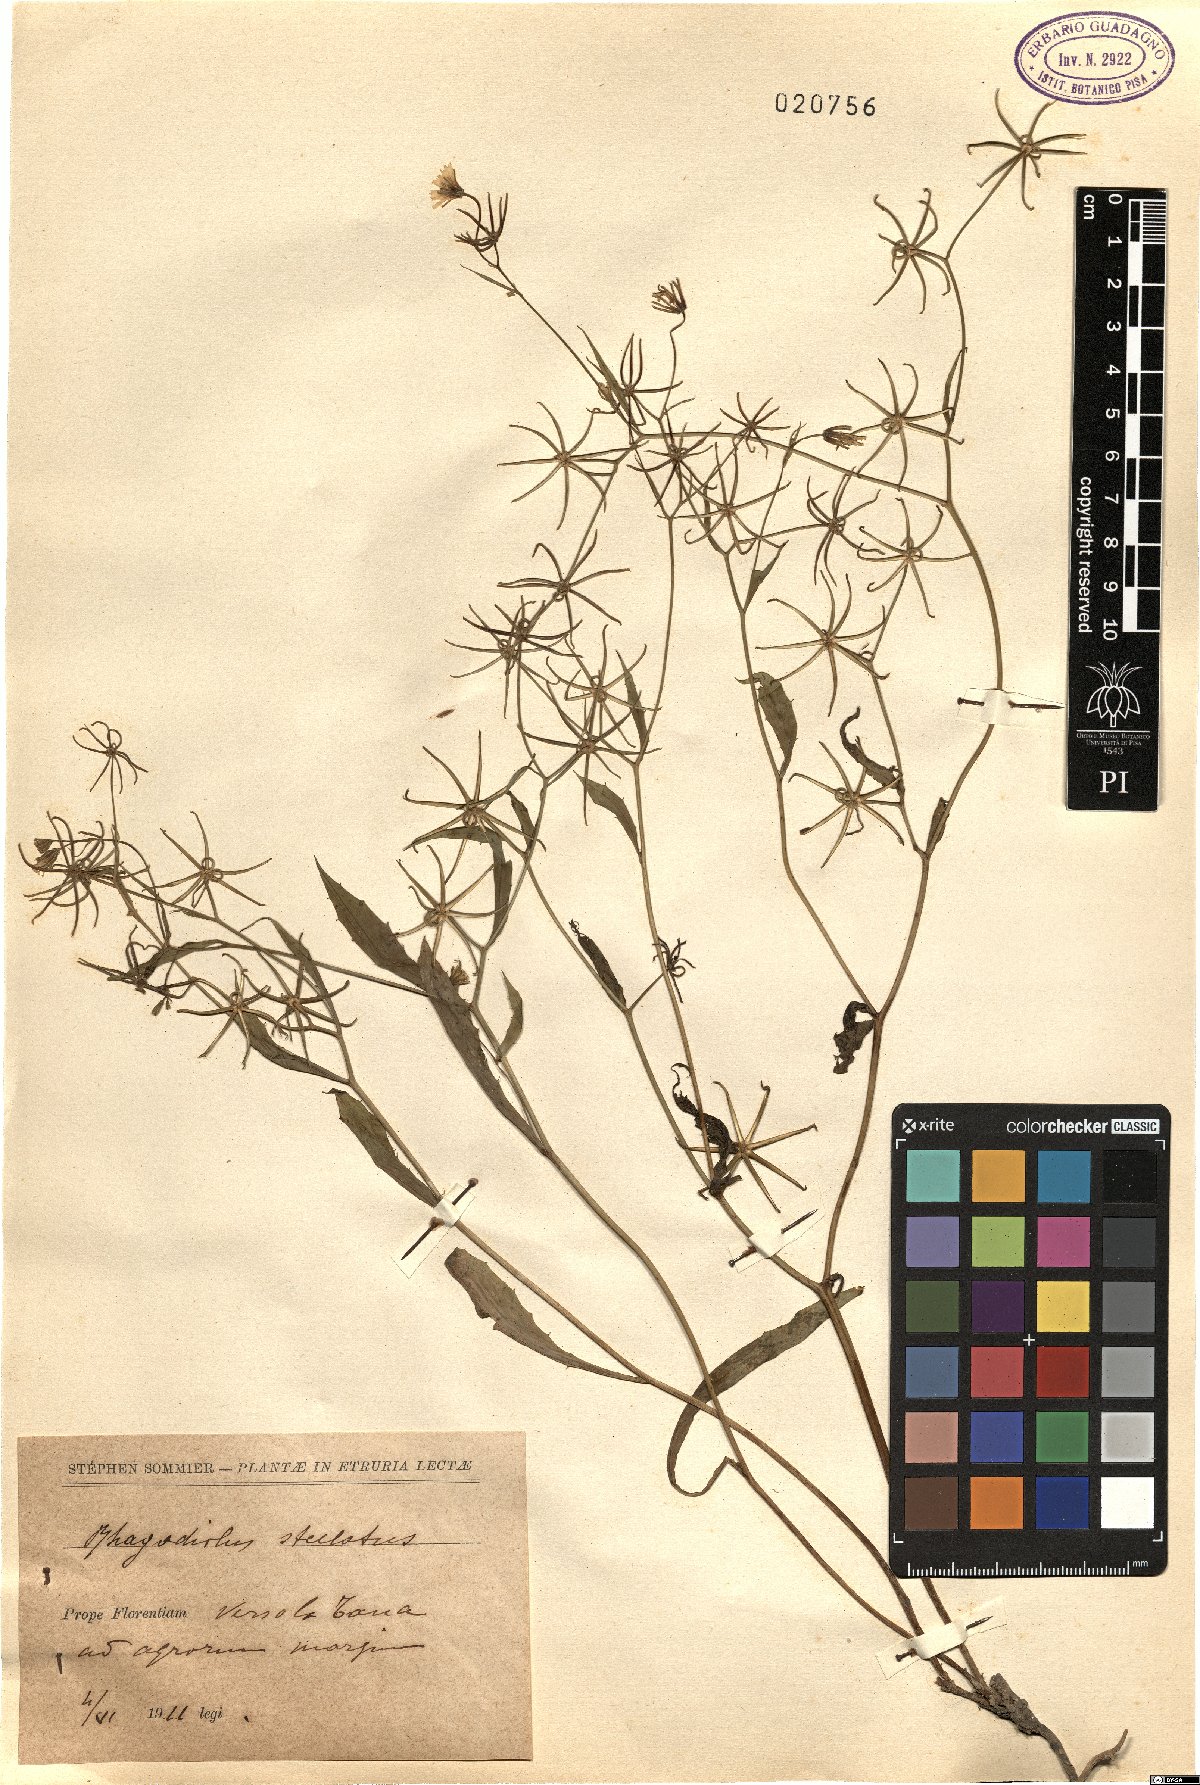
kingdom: Plantae
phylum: Tracheophyta
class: Magnoliopsida
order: Asterales
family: Asteraceae
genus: Rhagadiolus
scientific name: Rhagadiolus stellatus
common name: Star hawkbit
